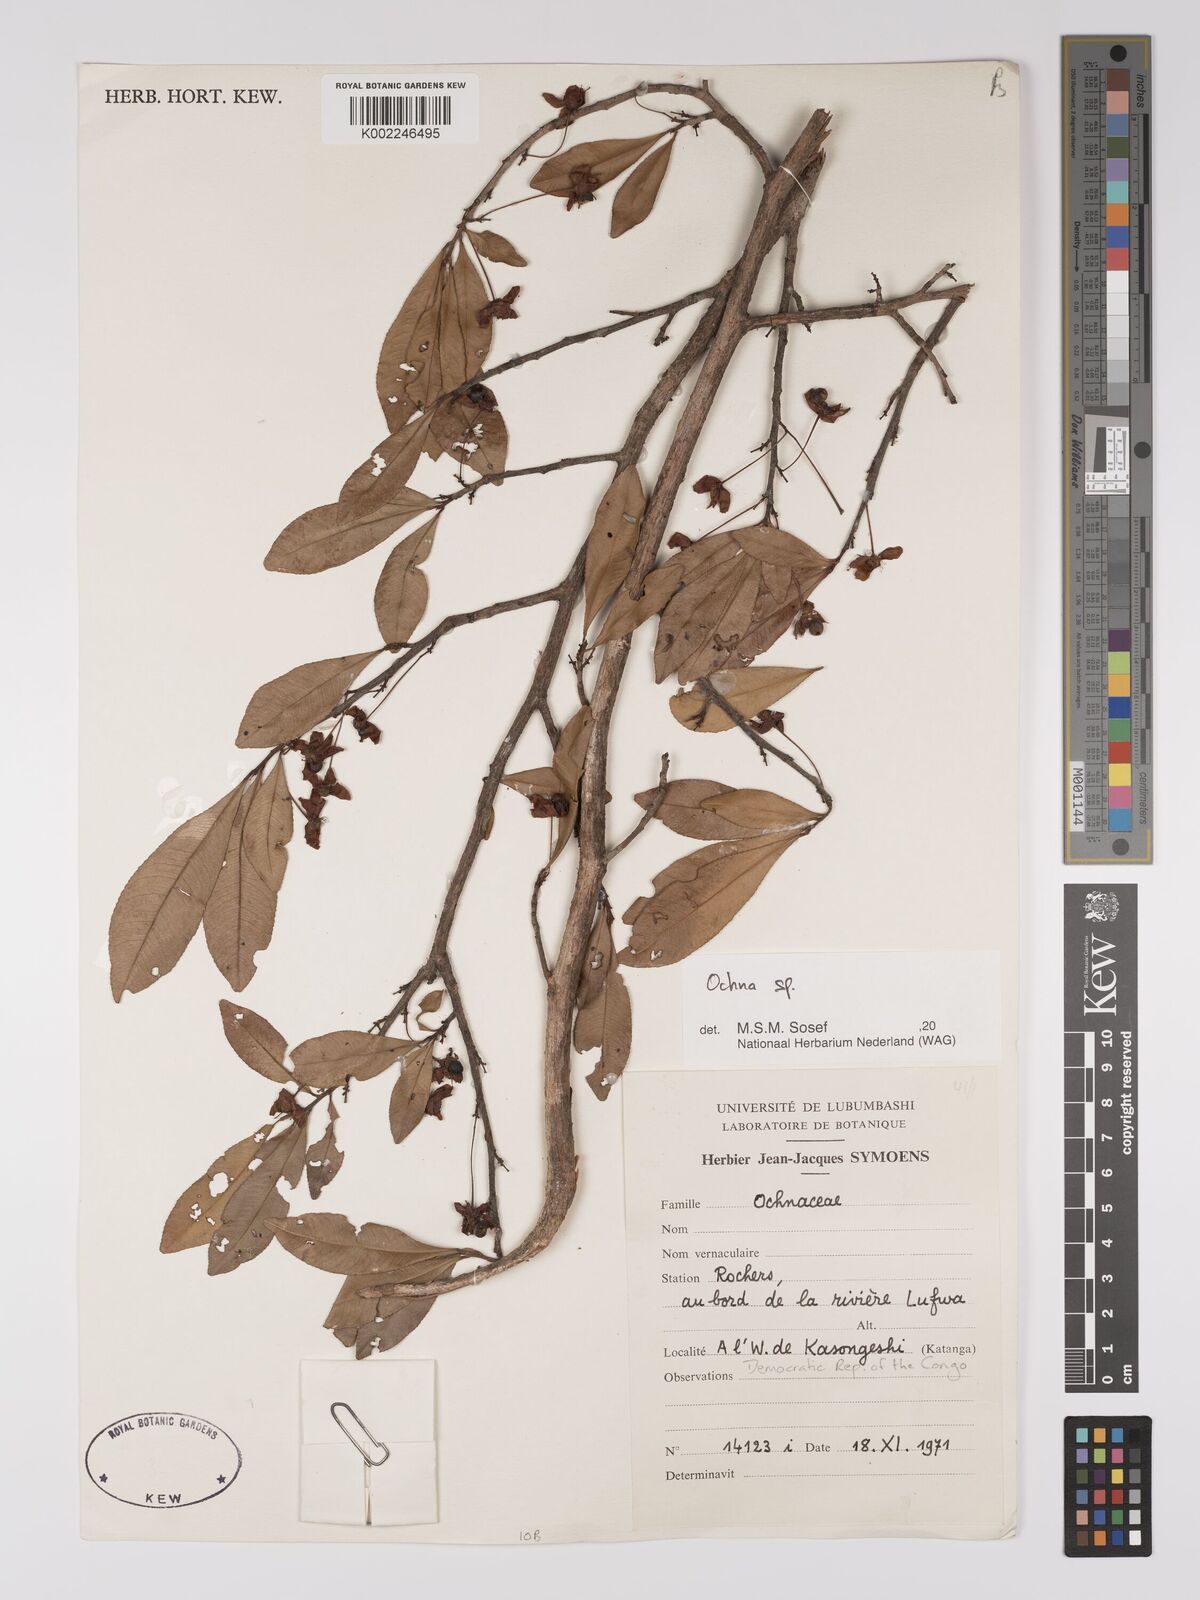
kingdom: Plantae
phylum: Tracheophyta
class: Magnoliopsida
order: Malpighiales
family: Ochnaceae
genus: Ochna
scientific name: Ochna
